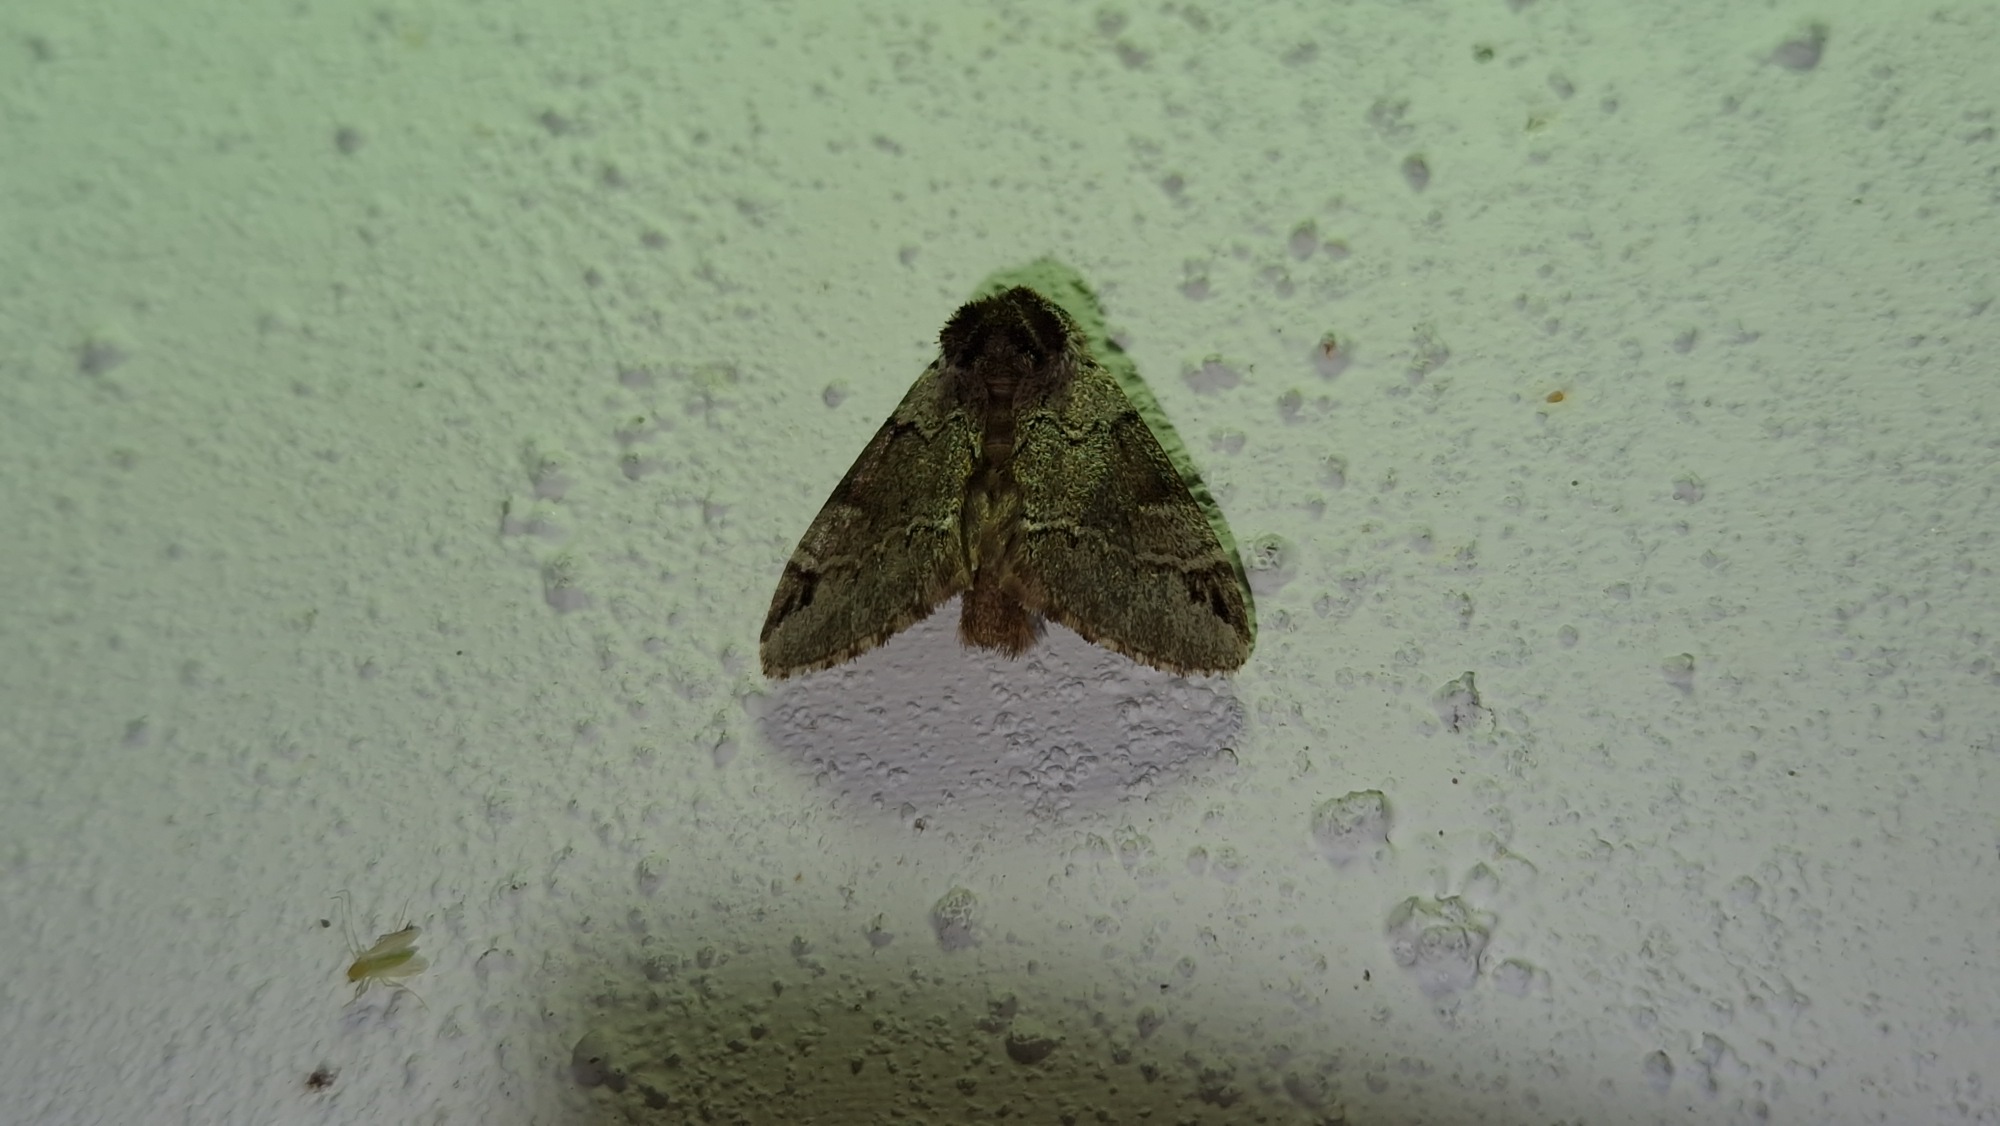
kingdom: Animalia
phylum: Arthropoda
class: Insecta
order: Lepidoptera
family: Notodontidae
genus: Drymonia
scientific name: Drymonia obliterata
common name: Bøgeskovspinder
